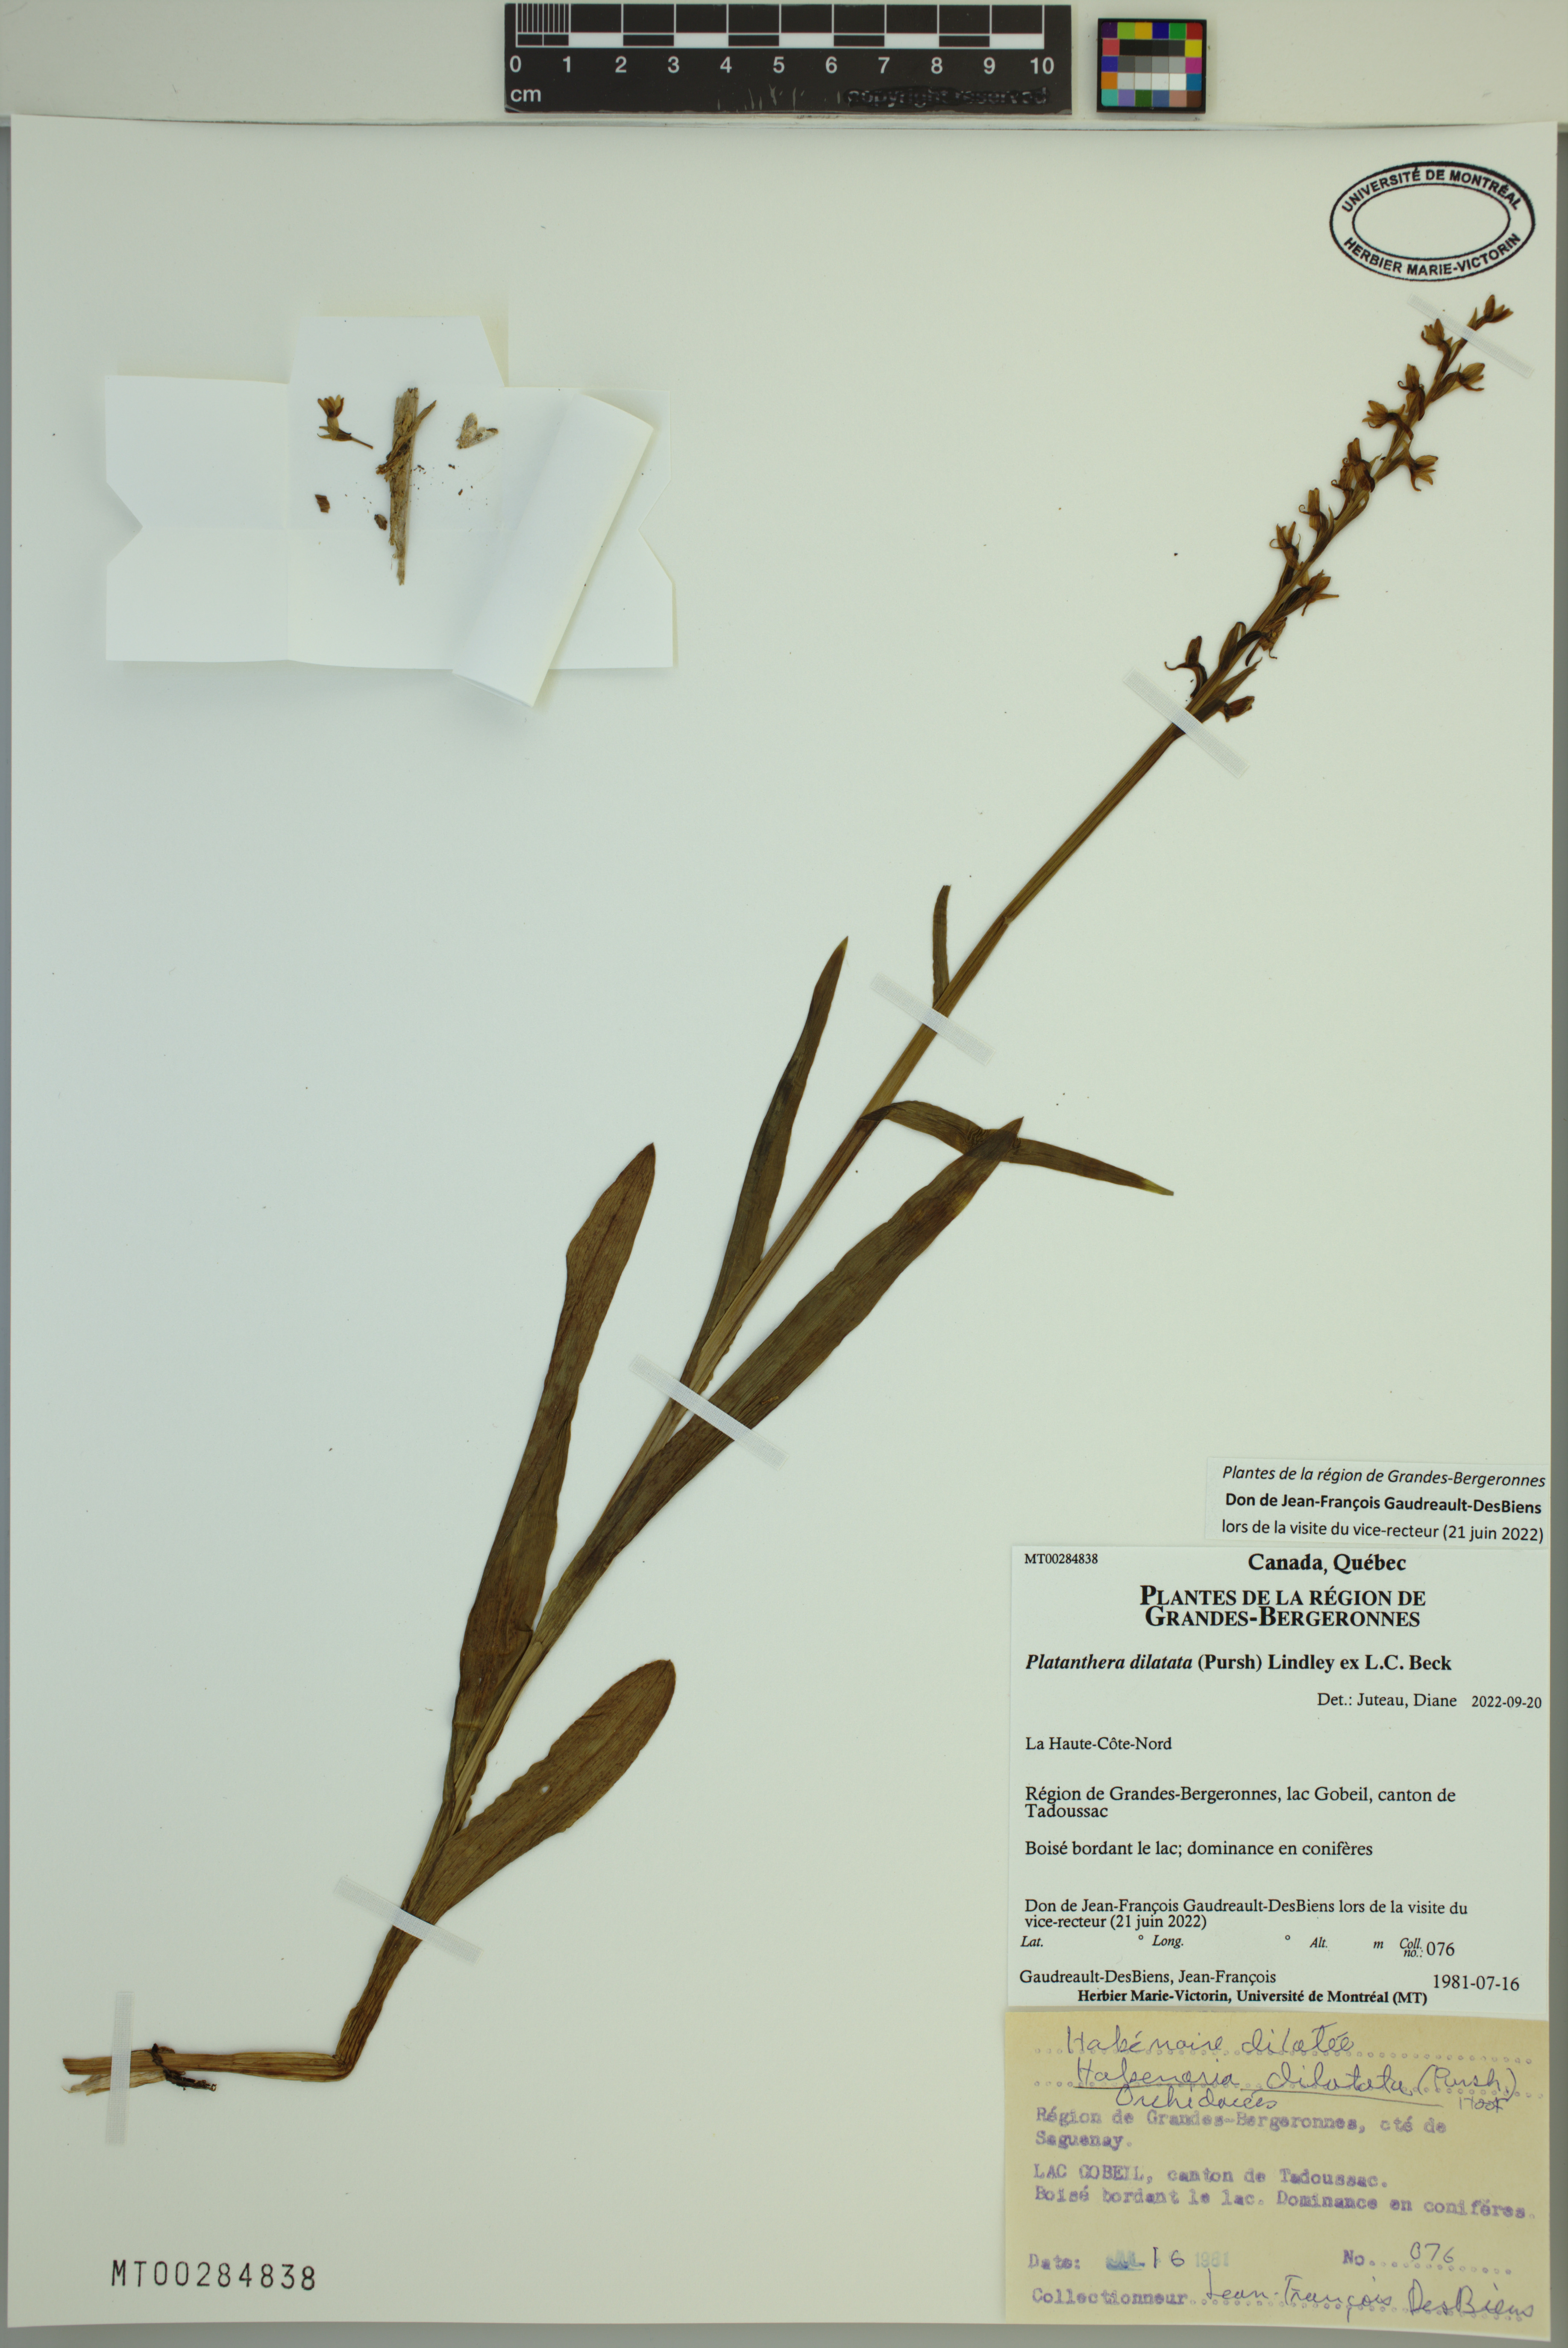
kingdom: Plantae
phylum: Tracheophyta
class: Liliopsida
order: Asparagales
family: Orchidaceae
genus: Platanthera
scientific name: Platanthera dilatata
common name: Bog candles
